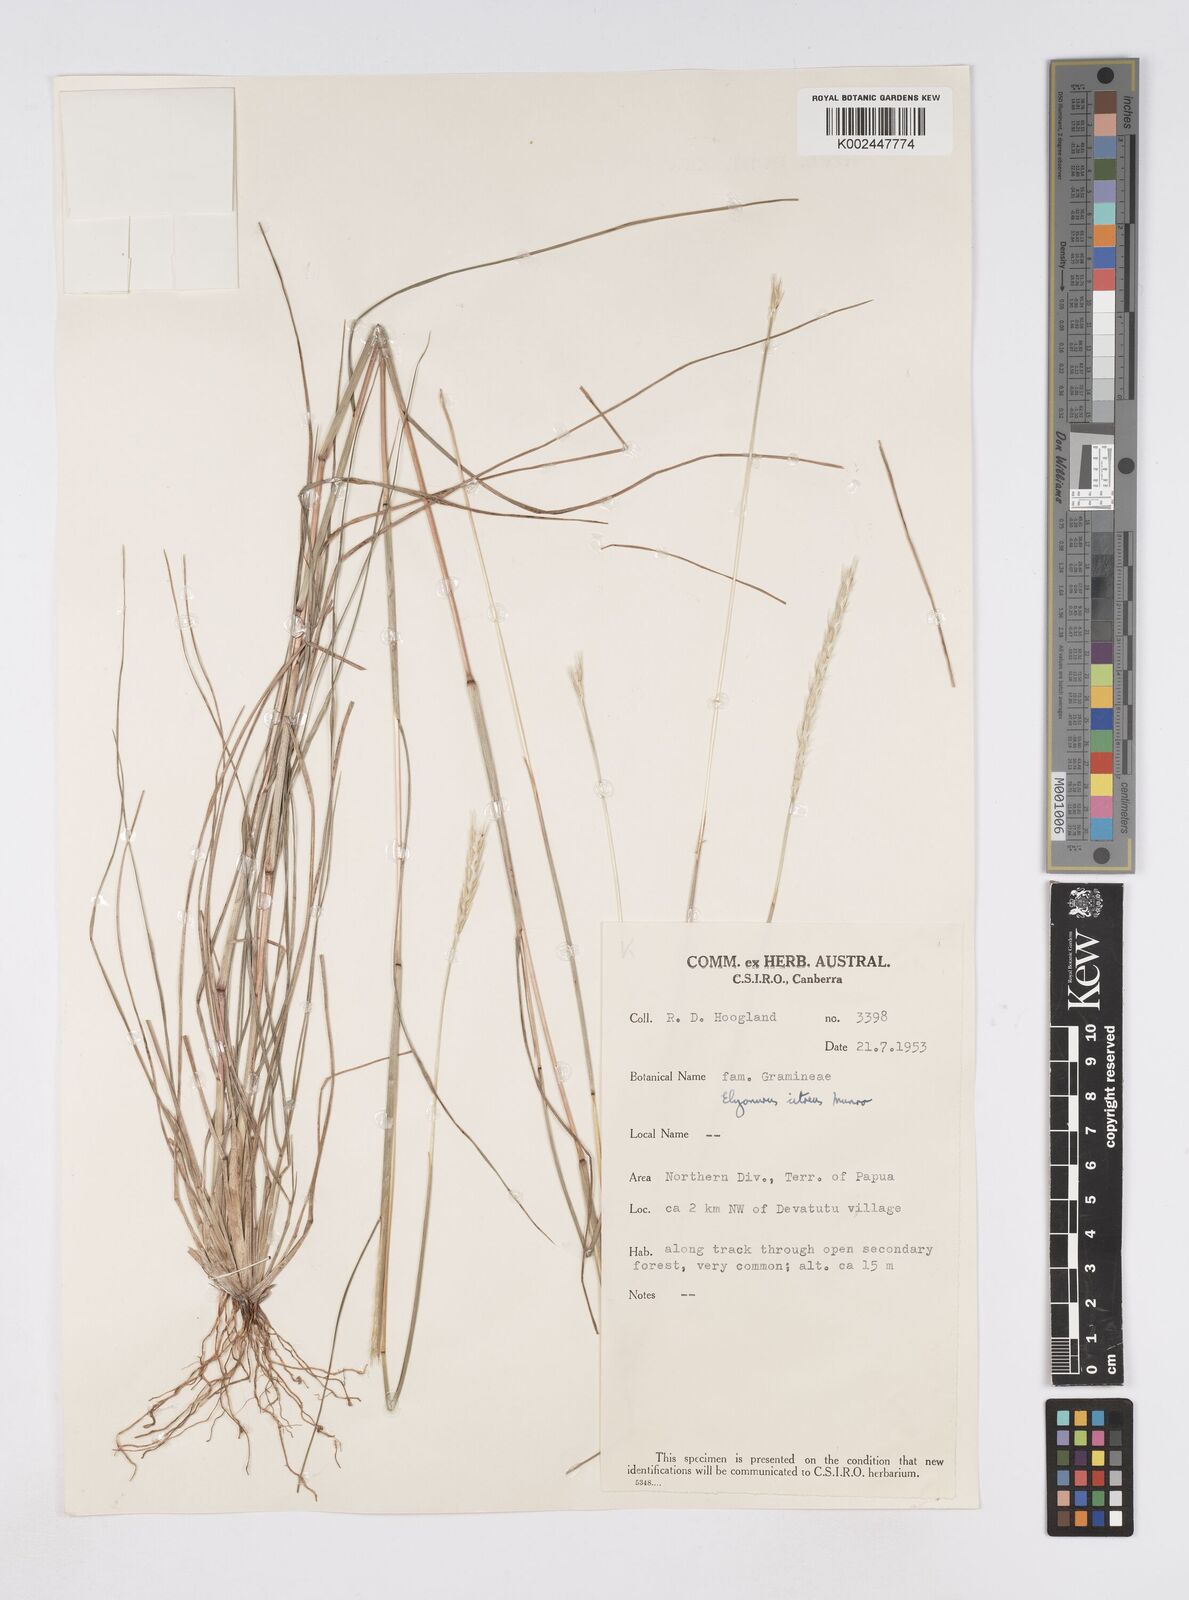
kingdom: Plantae
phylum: Tracheophyta
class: Liliopsida
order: Poales
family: Poaceae
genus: Elionurus
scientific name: Elionurus citreus
